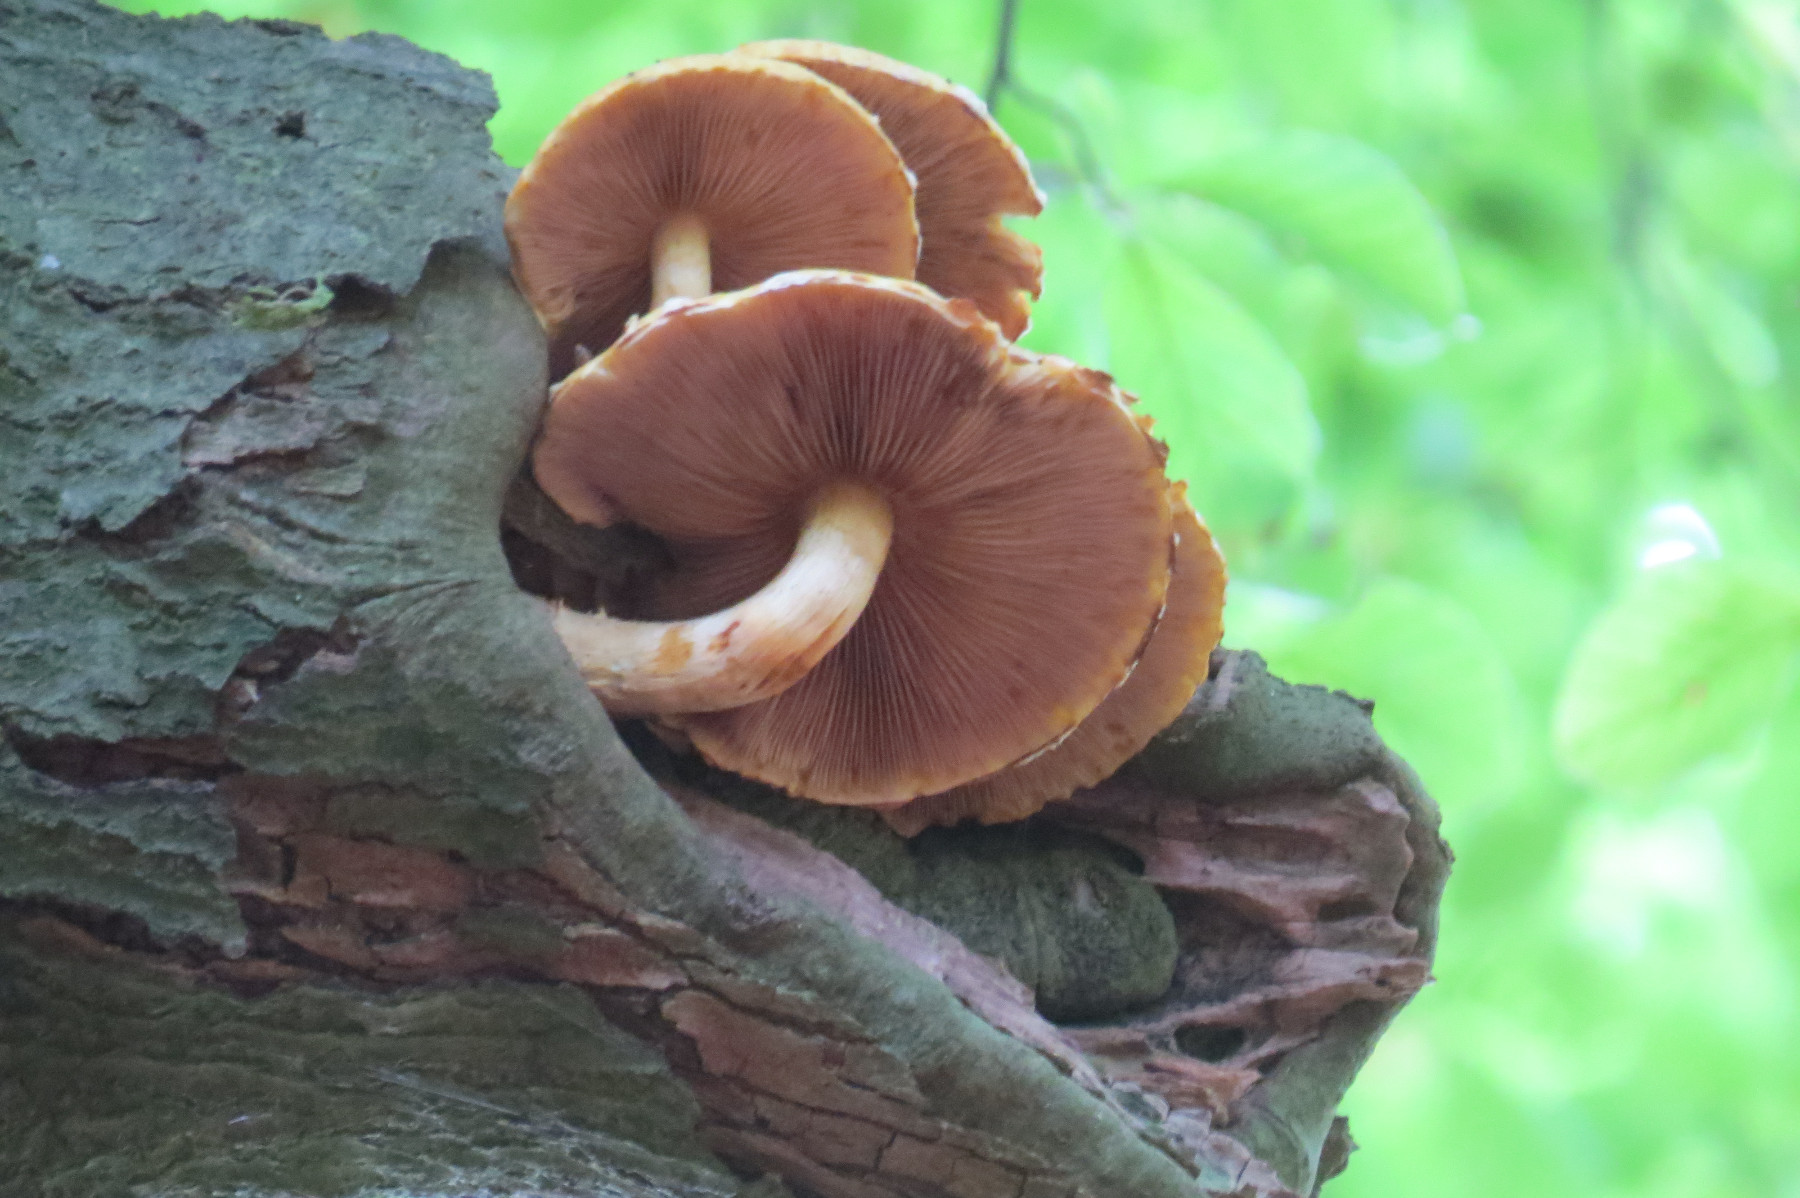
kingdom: Fungi
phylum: Basidiomycota
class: Agaricomycetes
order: Agaricales
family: Strophariaceae
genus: Pholiota
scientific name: Pholiota adiposa
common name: højtsiddende skælhat
